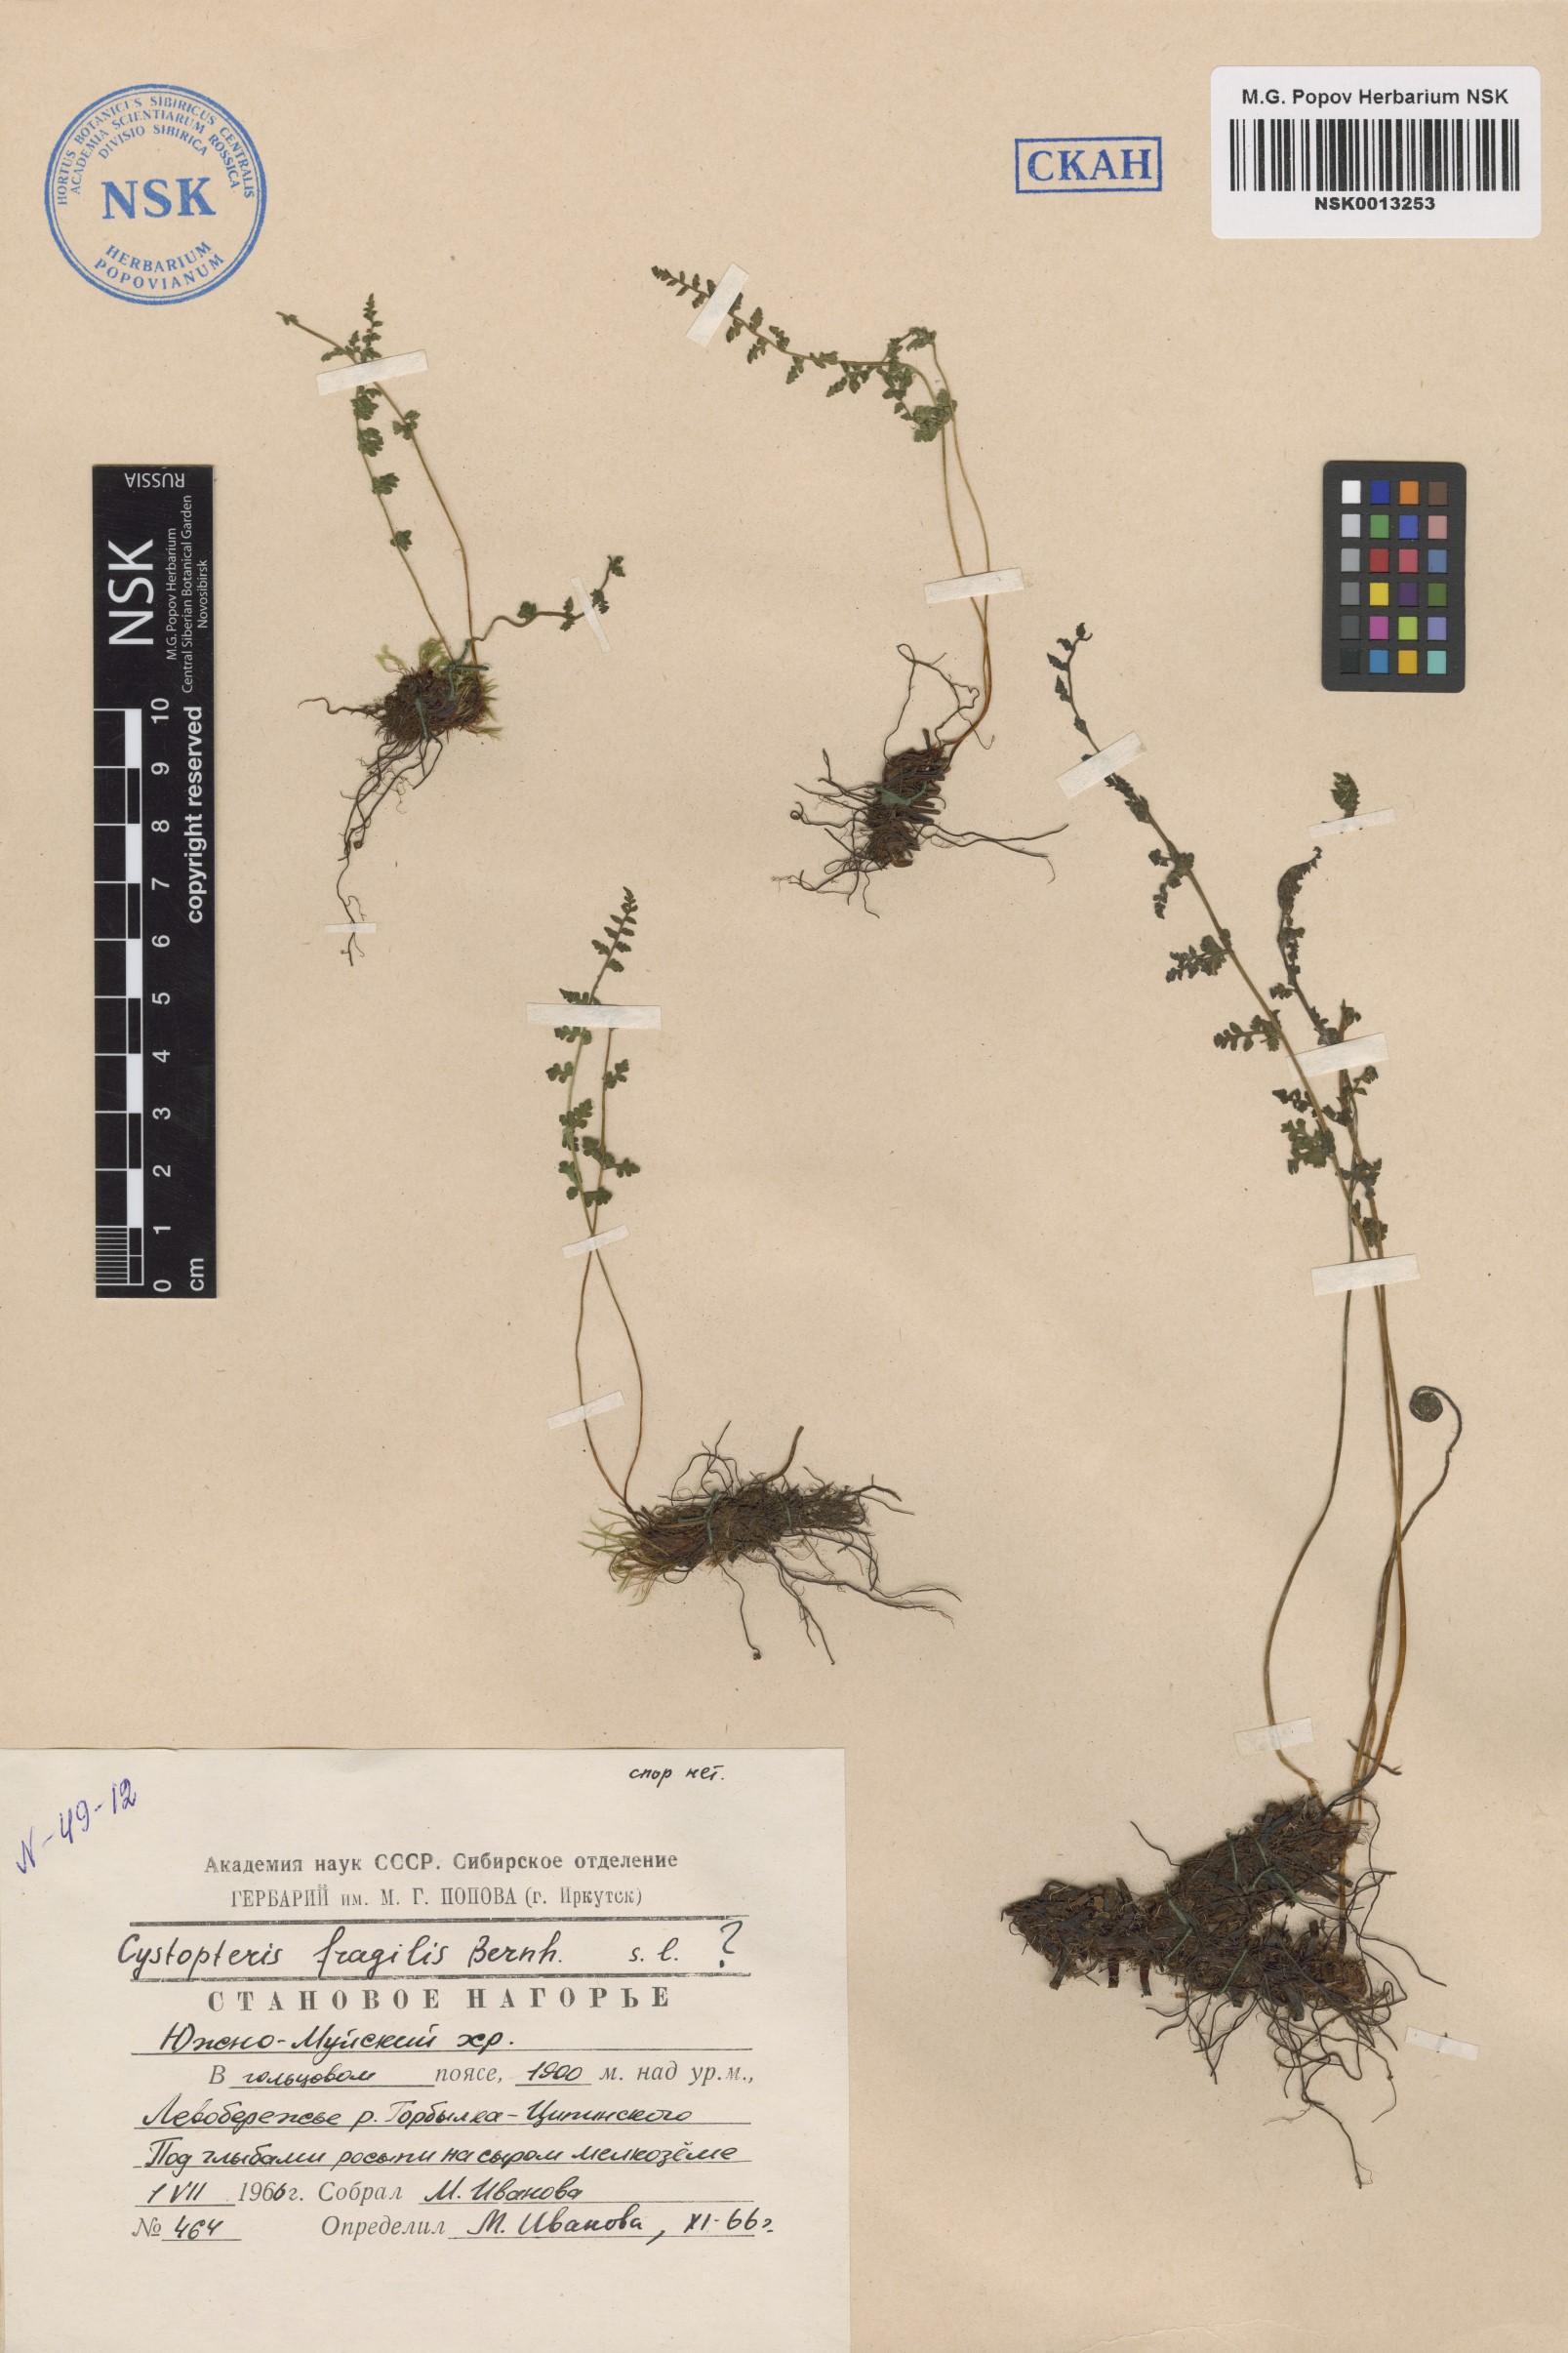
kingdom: Plantae
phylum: Tracheophyta
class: Polypodiopsida
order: Polypodiales
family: Cystopteridaceae
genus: Cystopteris
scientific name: Cystopteris fragilis
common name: Brittle bladder fern
